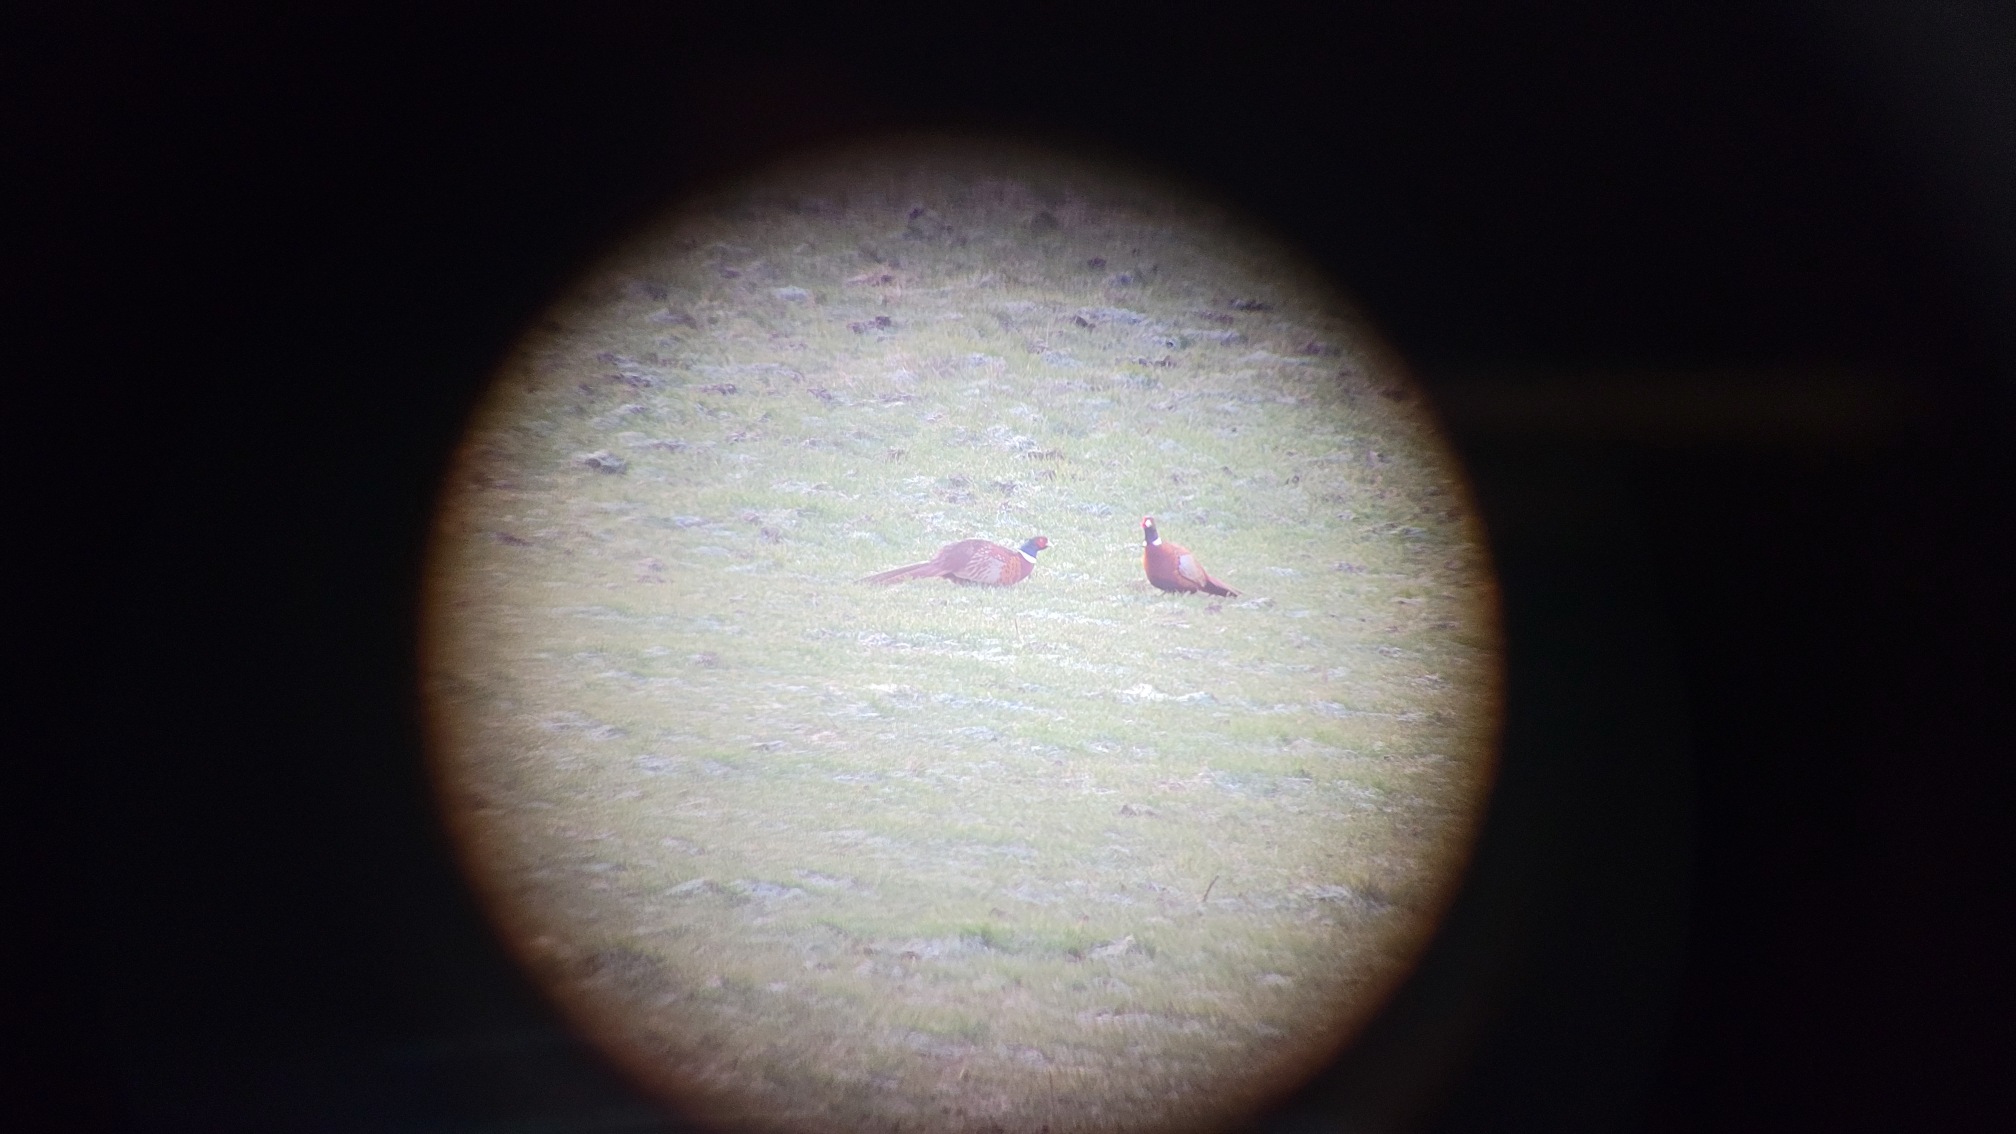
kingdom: Animalia
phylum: Chordata
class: Aves
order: Galliformes
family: Phasianidae
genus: Phasianus
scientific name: Phasianus colchicus
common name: Fasan
